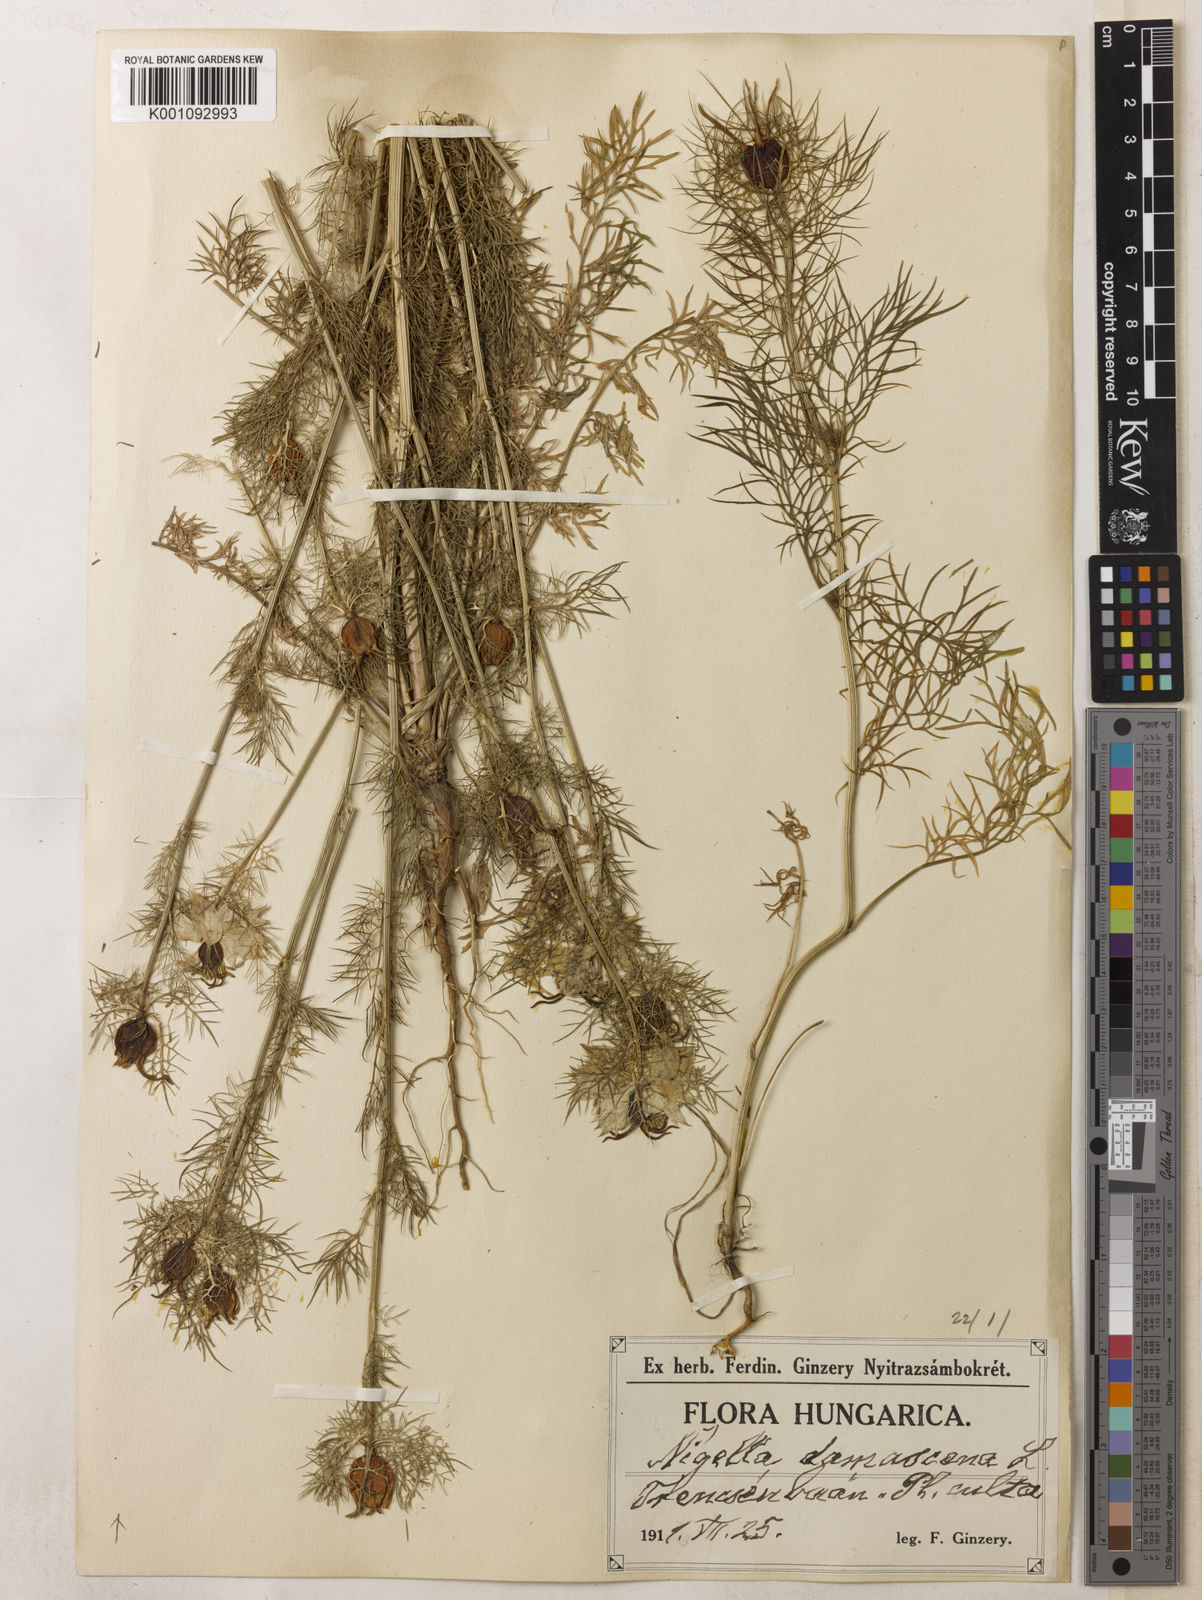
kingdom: Plantae
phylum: Tracheophyta
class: Magnoliopsida
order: Ranunculales
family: Ranunculaceae
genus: Nigella
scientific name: Nigella damascena
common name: Love-in-a-mist
